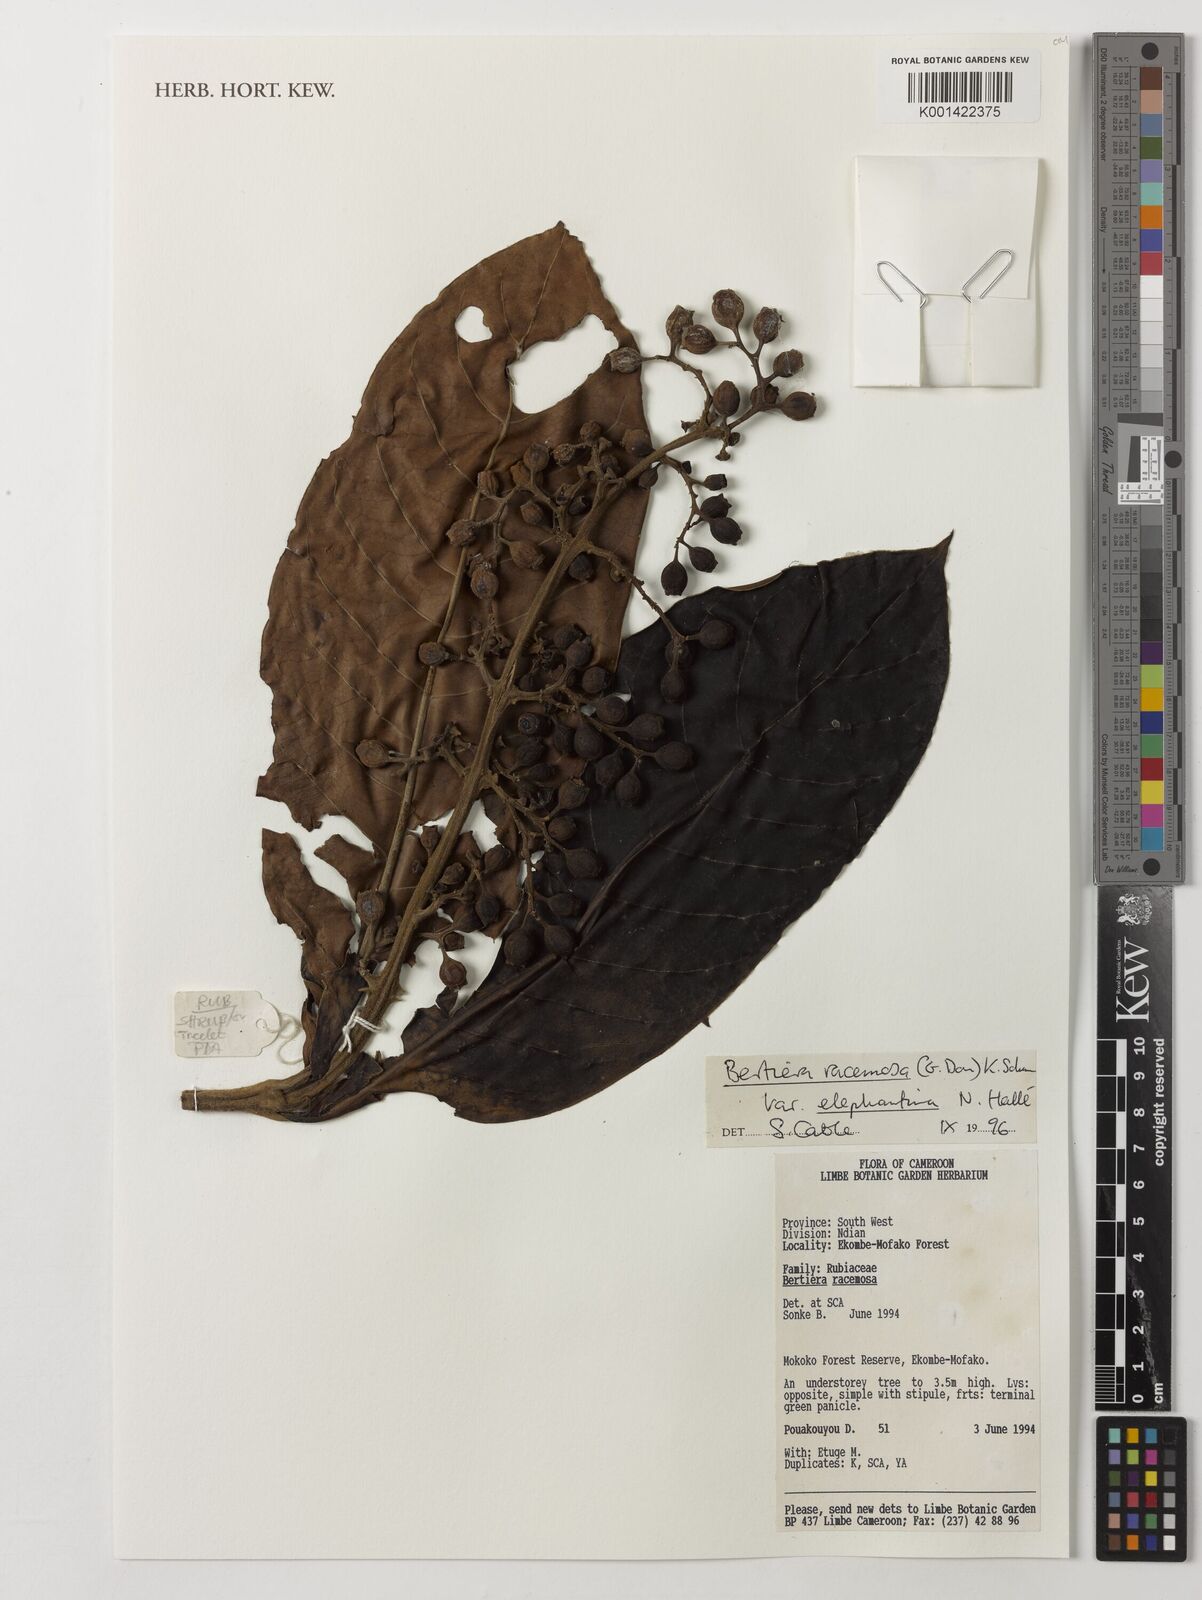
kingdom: Plantae
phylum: Tracheophyta
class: Magnoliopsida
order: Gentianales
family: Rubiaceae
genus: Bertiera
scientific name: Bertiera racemosa
